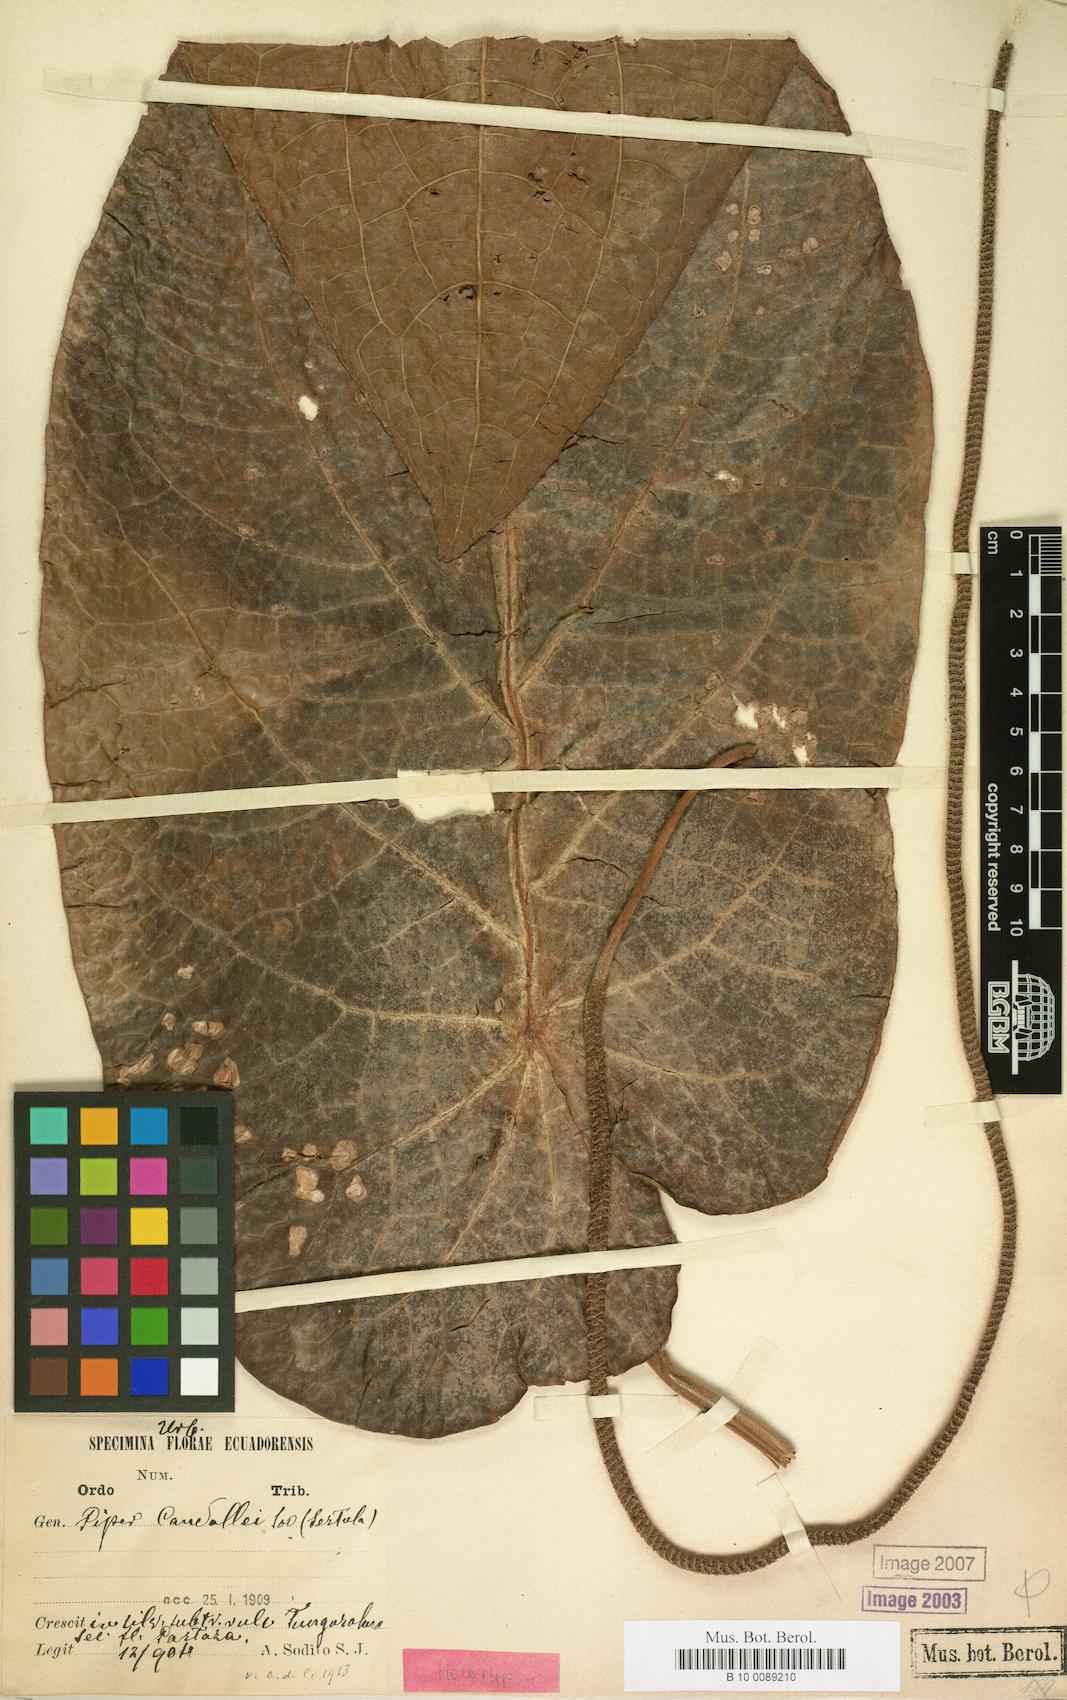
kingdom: Plantae
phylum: Tracheophyta
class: Magnoliopsida
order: Piperales
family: Piperaceae
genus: Piper
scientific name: Piper candollei
